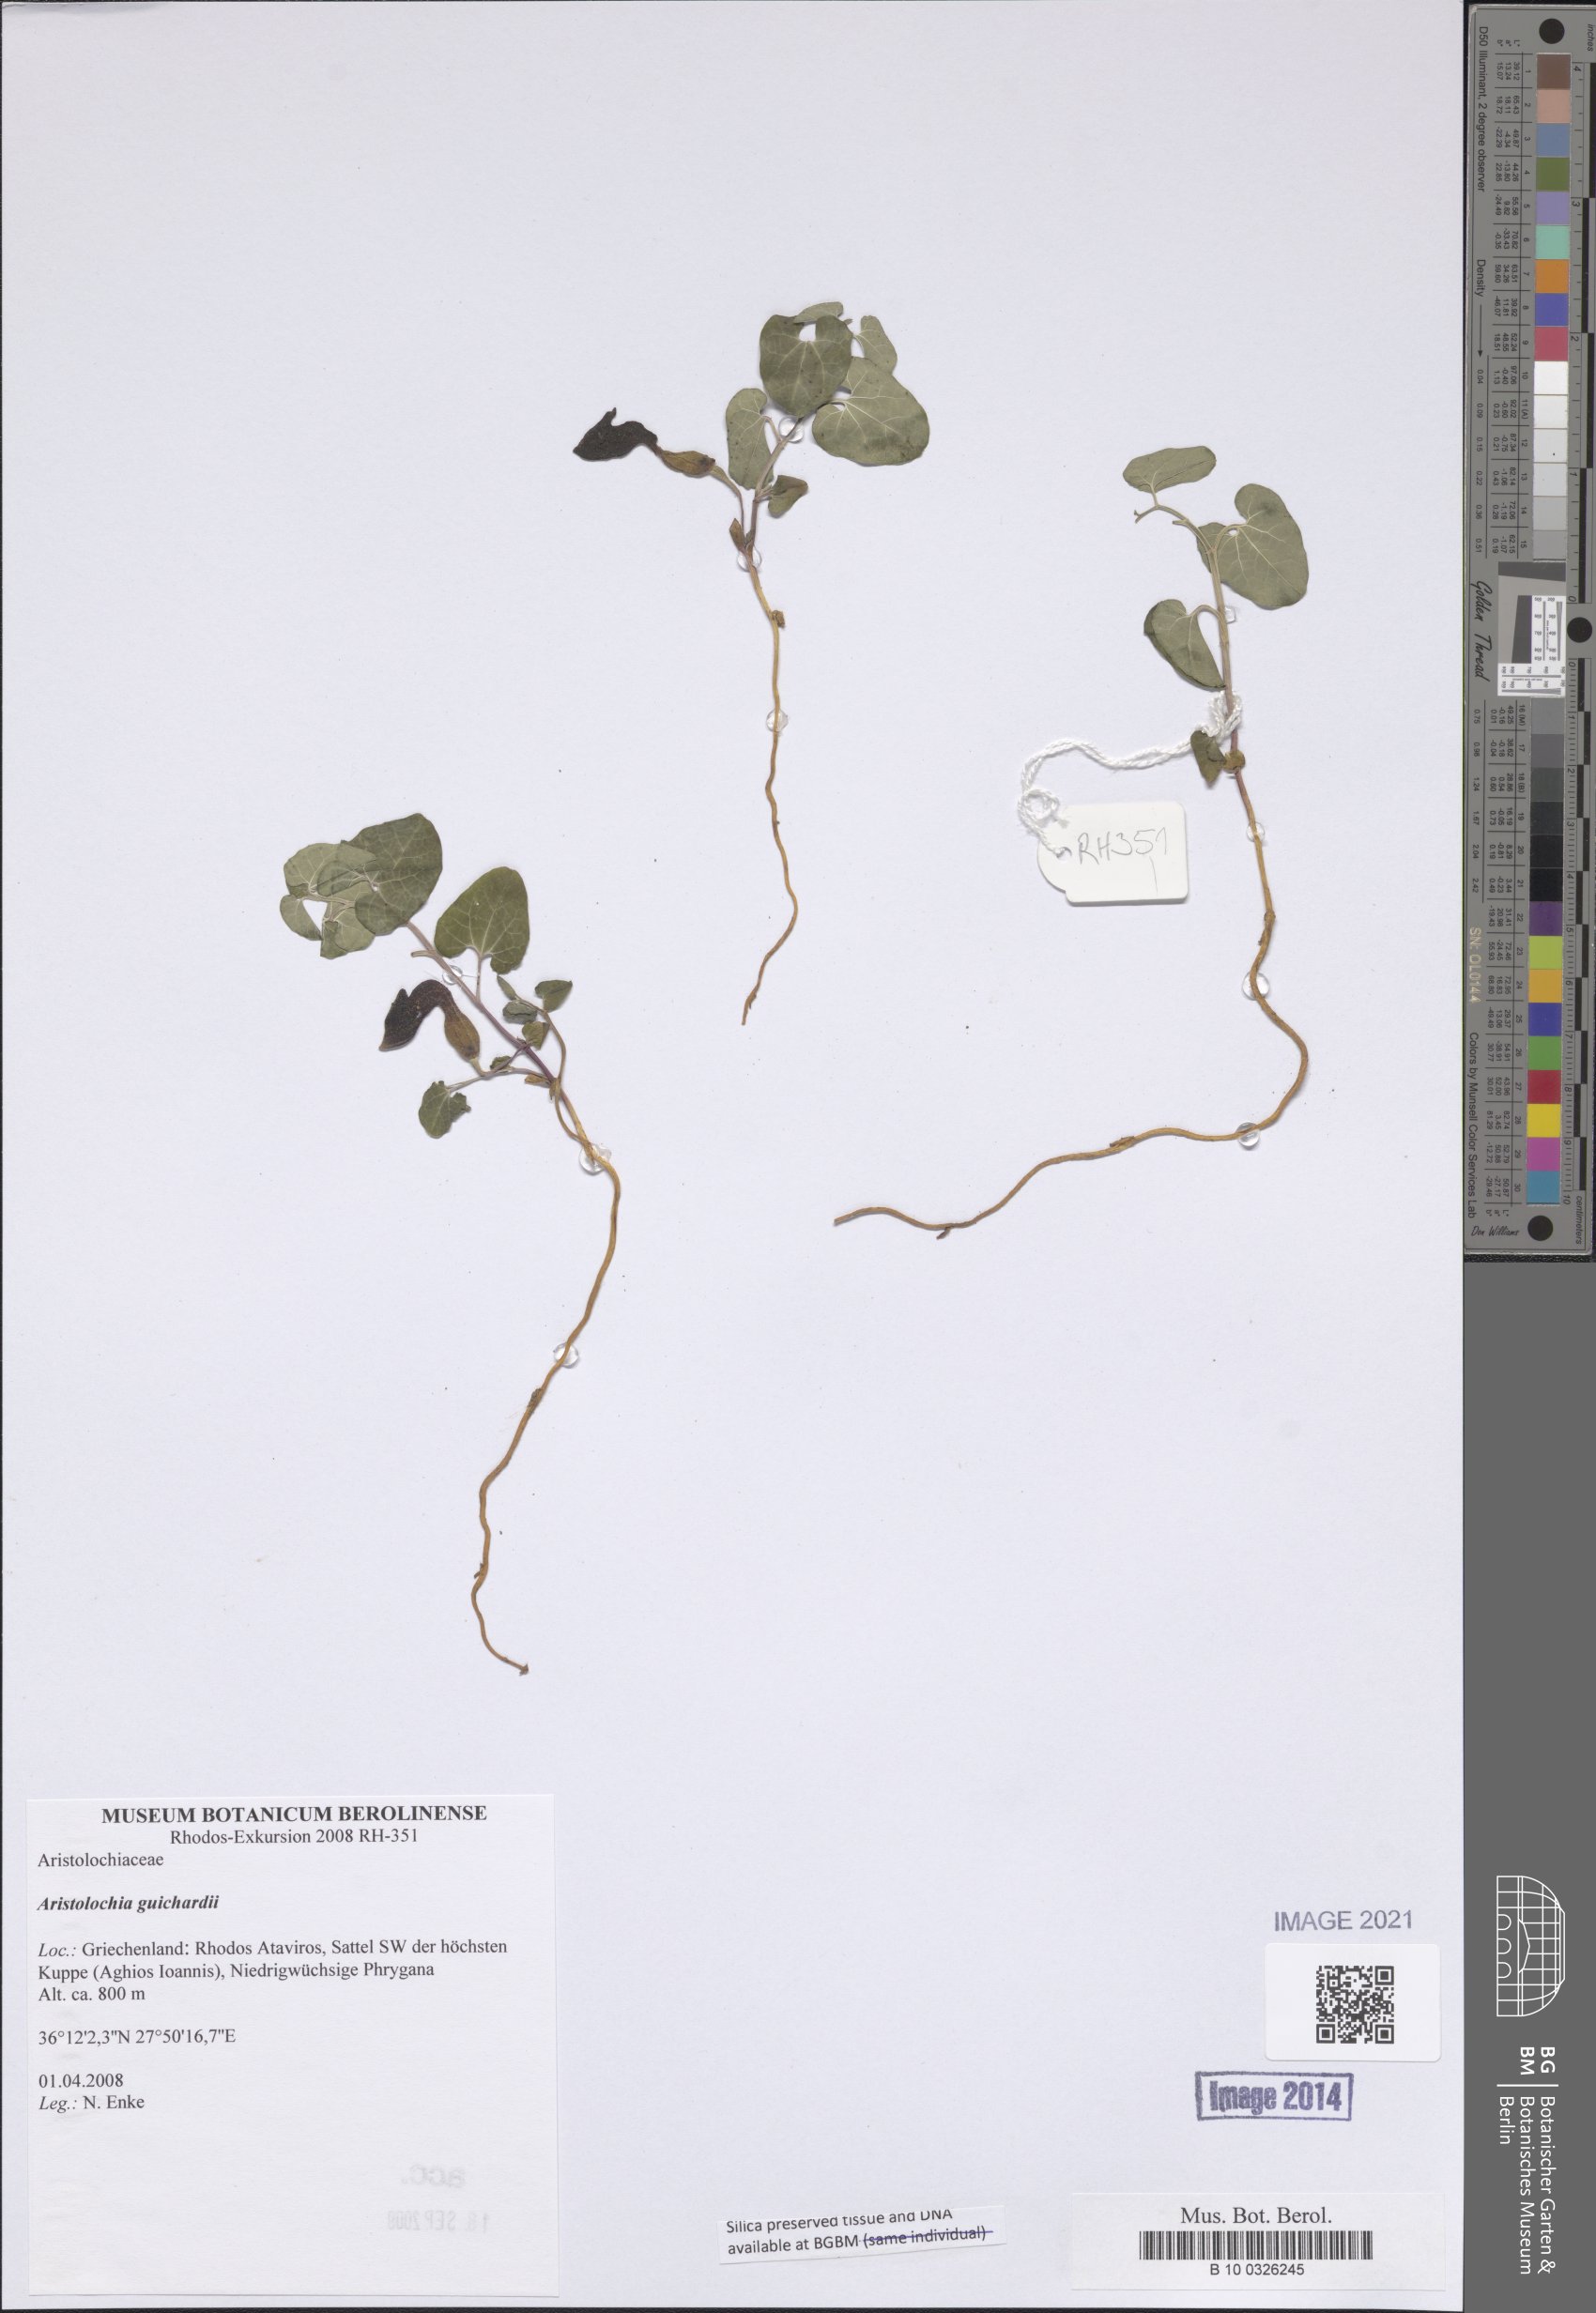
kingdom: Plantae
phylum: Tracheophyta
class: Magnoliopsida
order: Piperales
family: Aristolochiaceae
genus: Aristolochia
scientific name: Aristolochia guichardii
